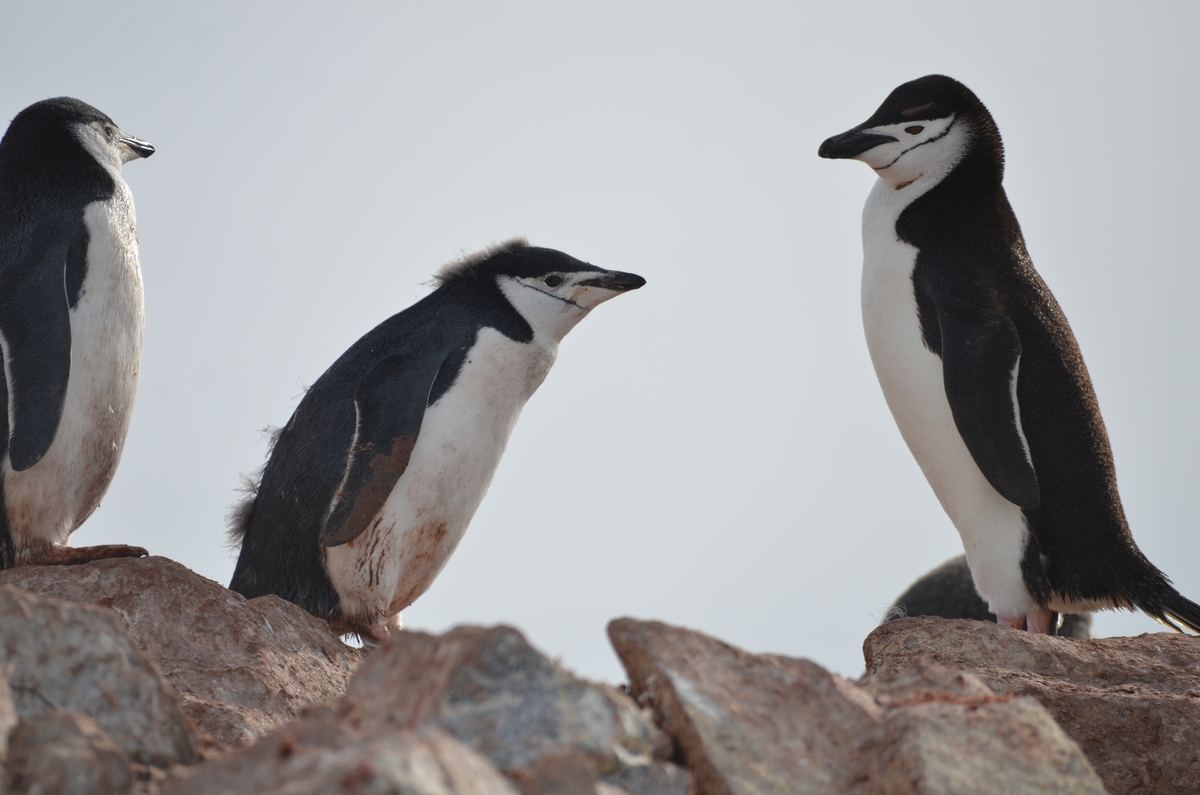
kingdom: Animalia
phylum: Chordata
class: Aves
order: Sphenisciformes
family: Spheniscidae
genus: Pygoscelis
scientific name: Pygoscelis antarcticus
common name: Chinstrap penguin
